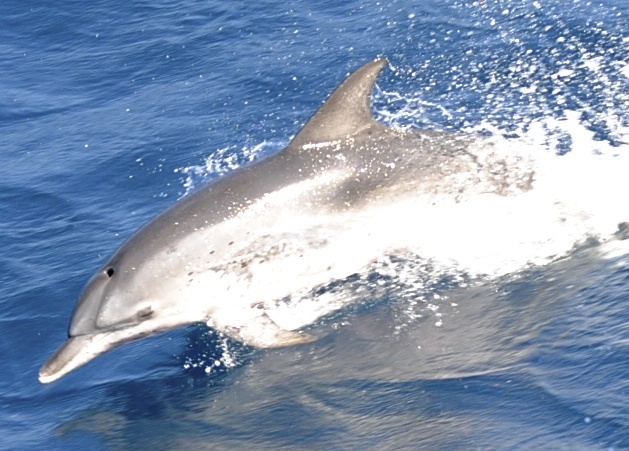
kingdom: Animalia
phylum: Chordata
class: Mammalia
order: Cetacea
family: Delphinidae
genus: Stenella
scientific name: Stenella frontalis
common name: Atlantic spotted dolphin
